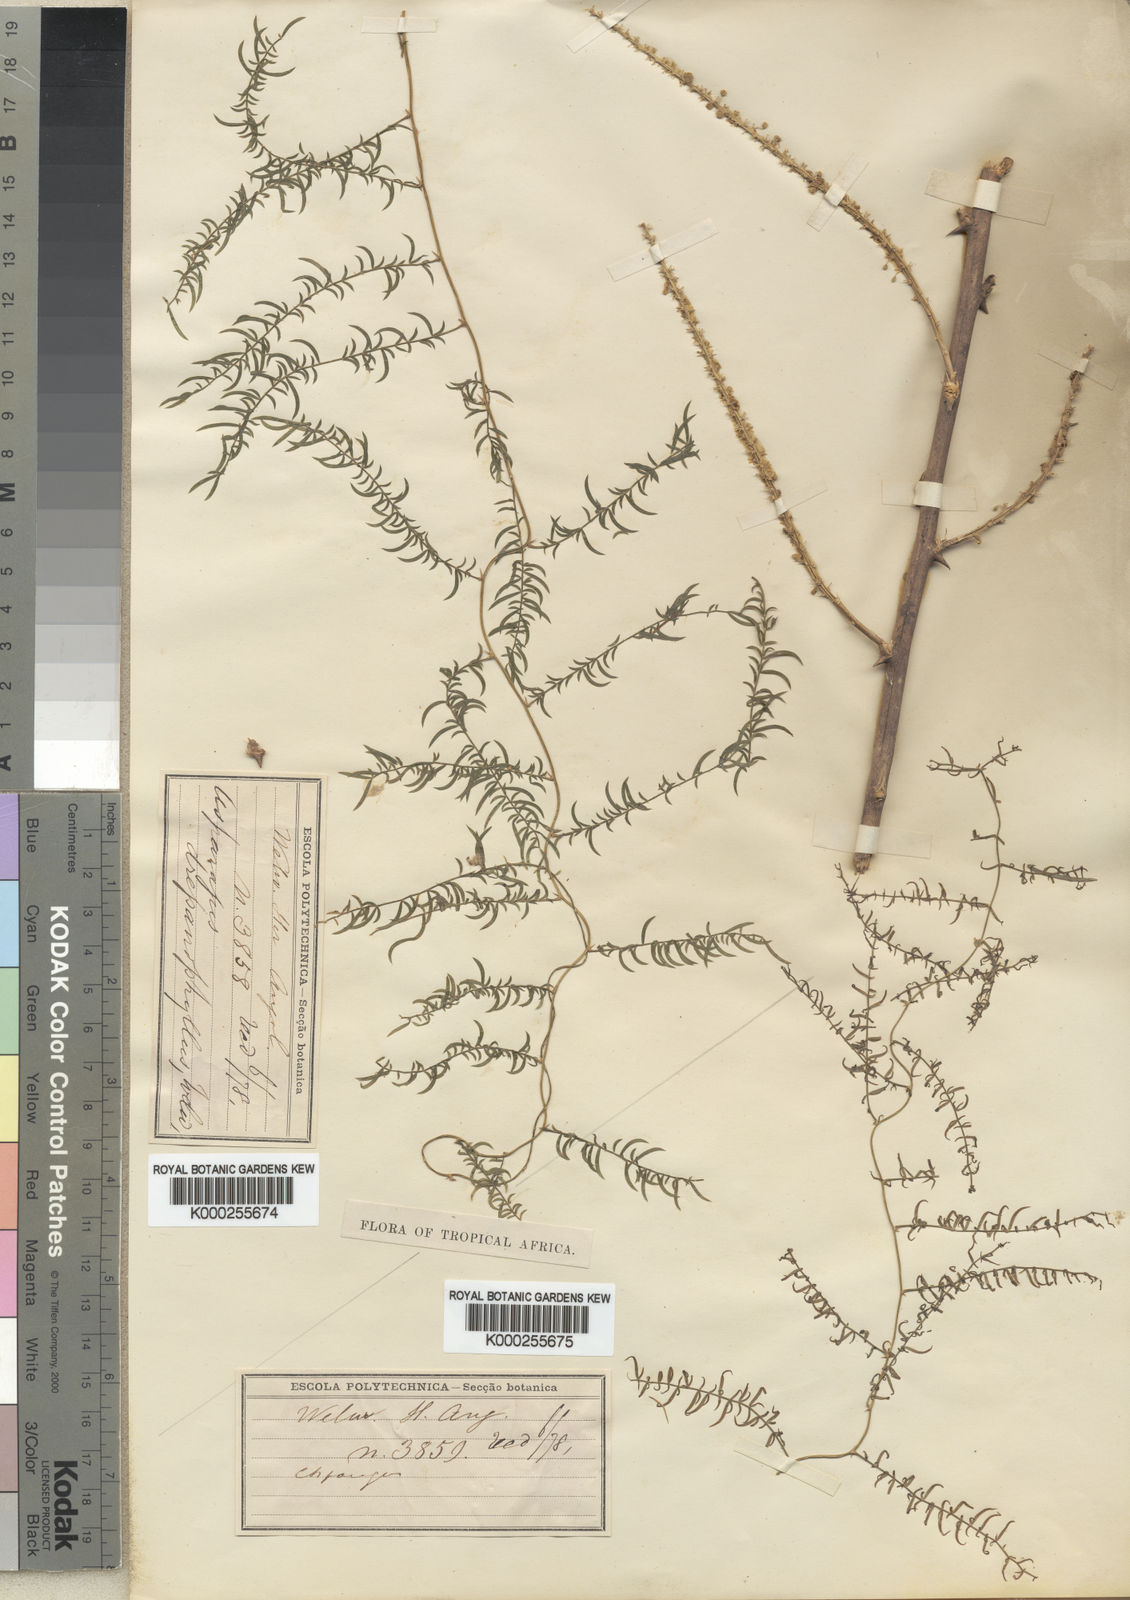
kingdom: Plantae
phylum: Tracheophyta
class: Liliopsida
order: Asparagales
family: Asparagaceae
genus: Asparagus
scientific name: Asparagus drepanophyllus
